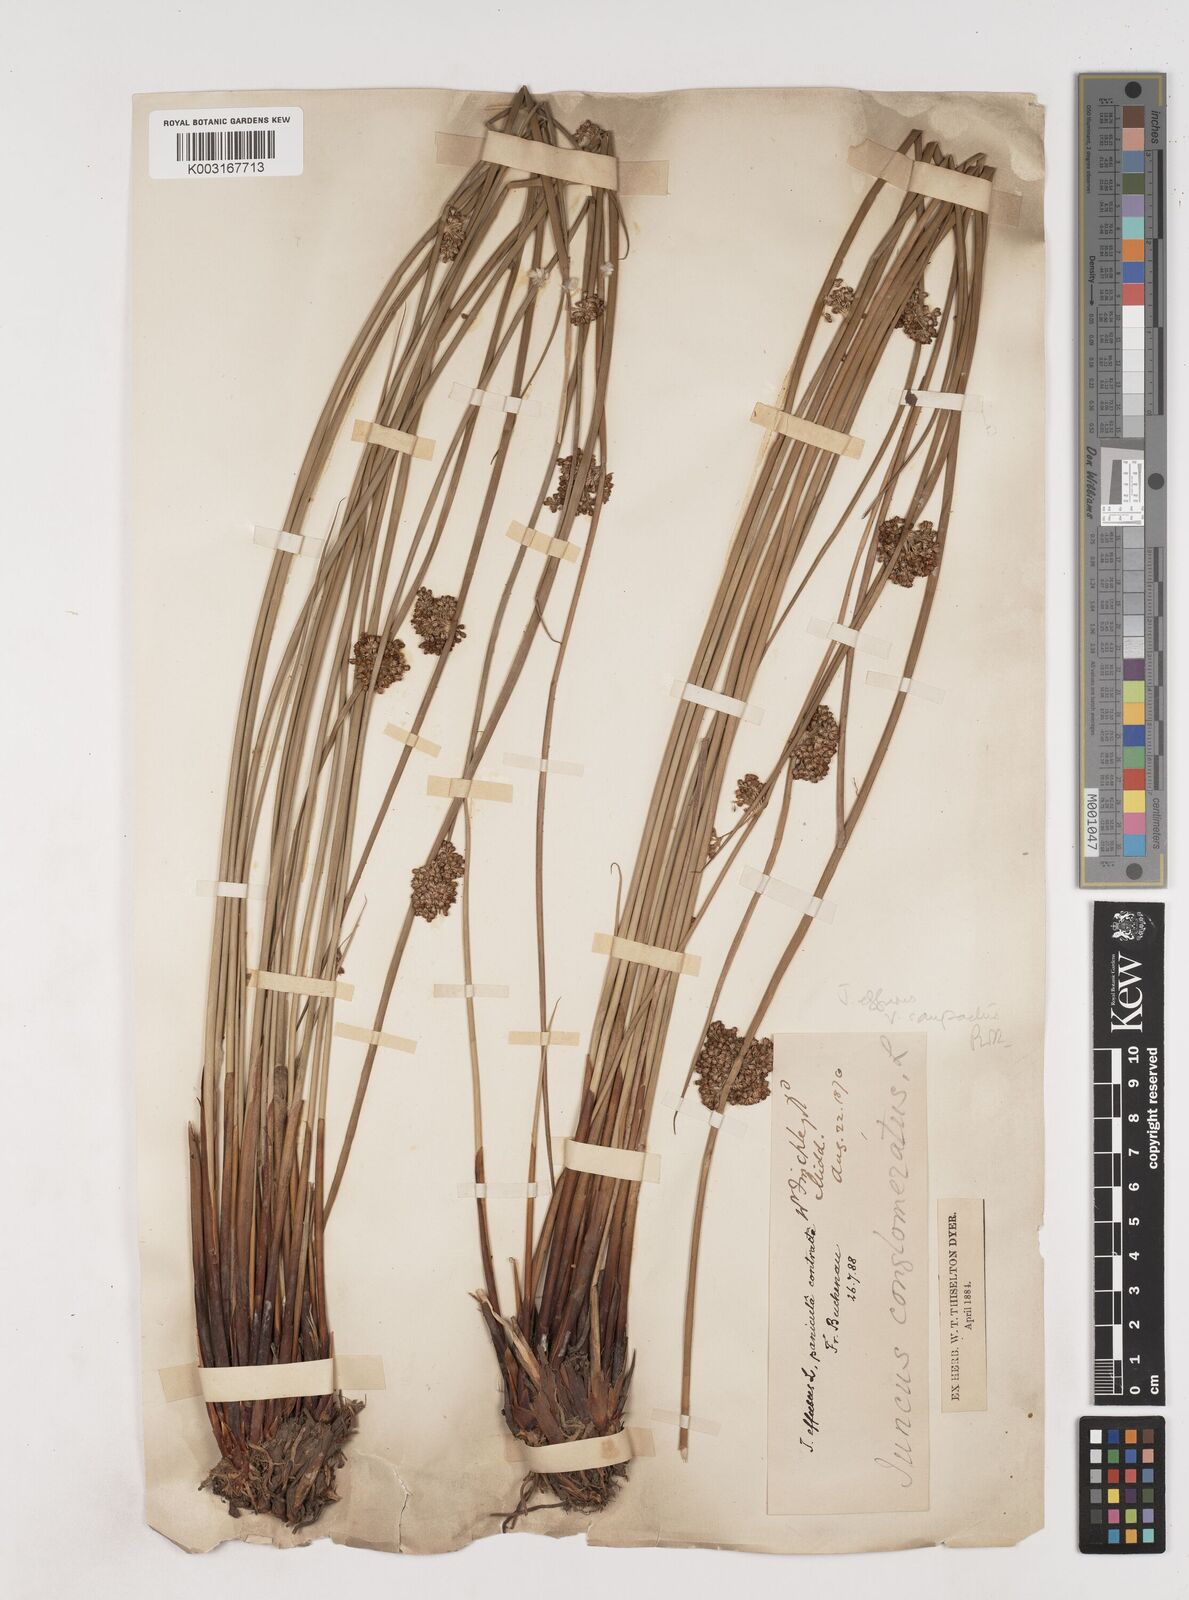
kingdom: Plantae
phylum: Tracheophyta
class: Liliopsida
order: Poales
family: Juncaceae
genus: Juncus
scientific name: Juncus effusus
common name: Soft rush
